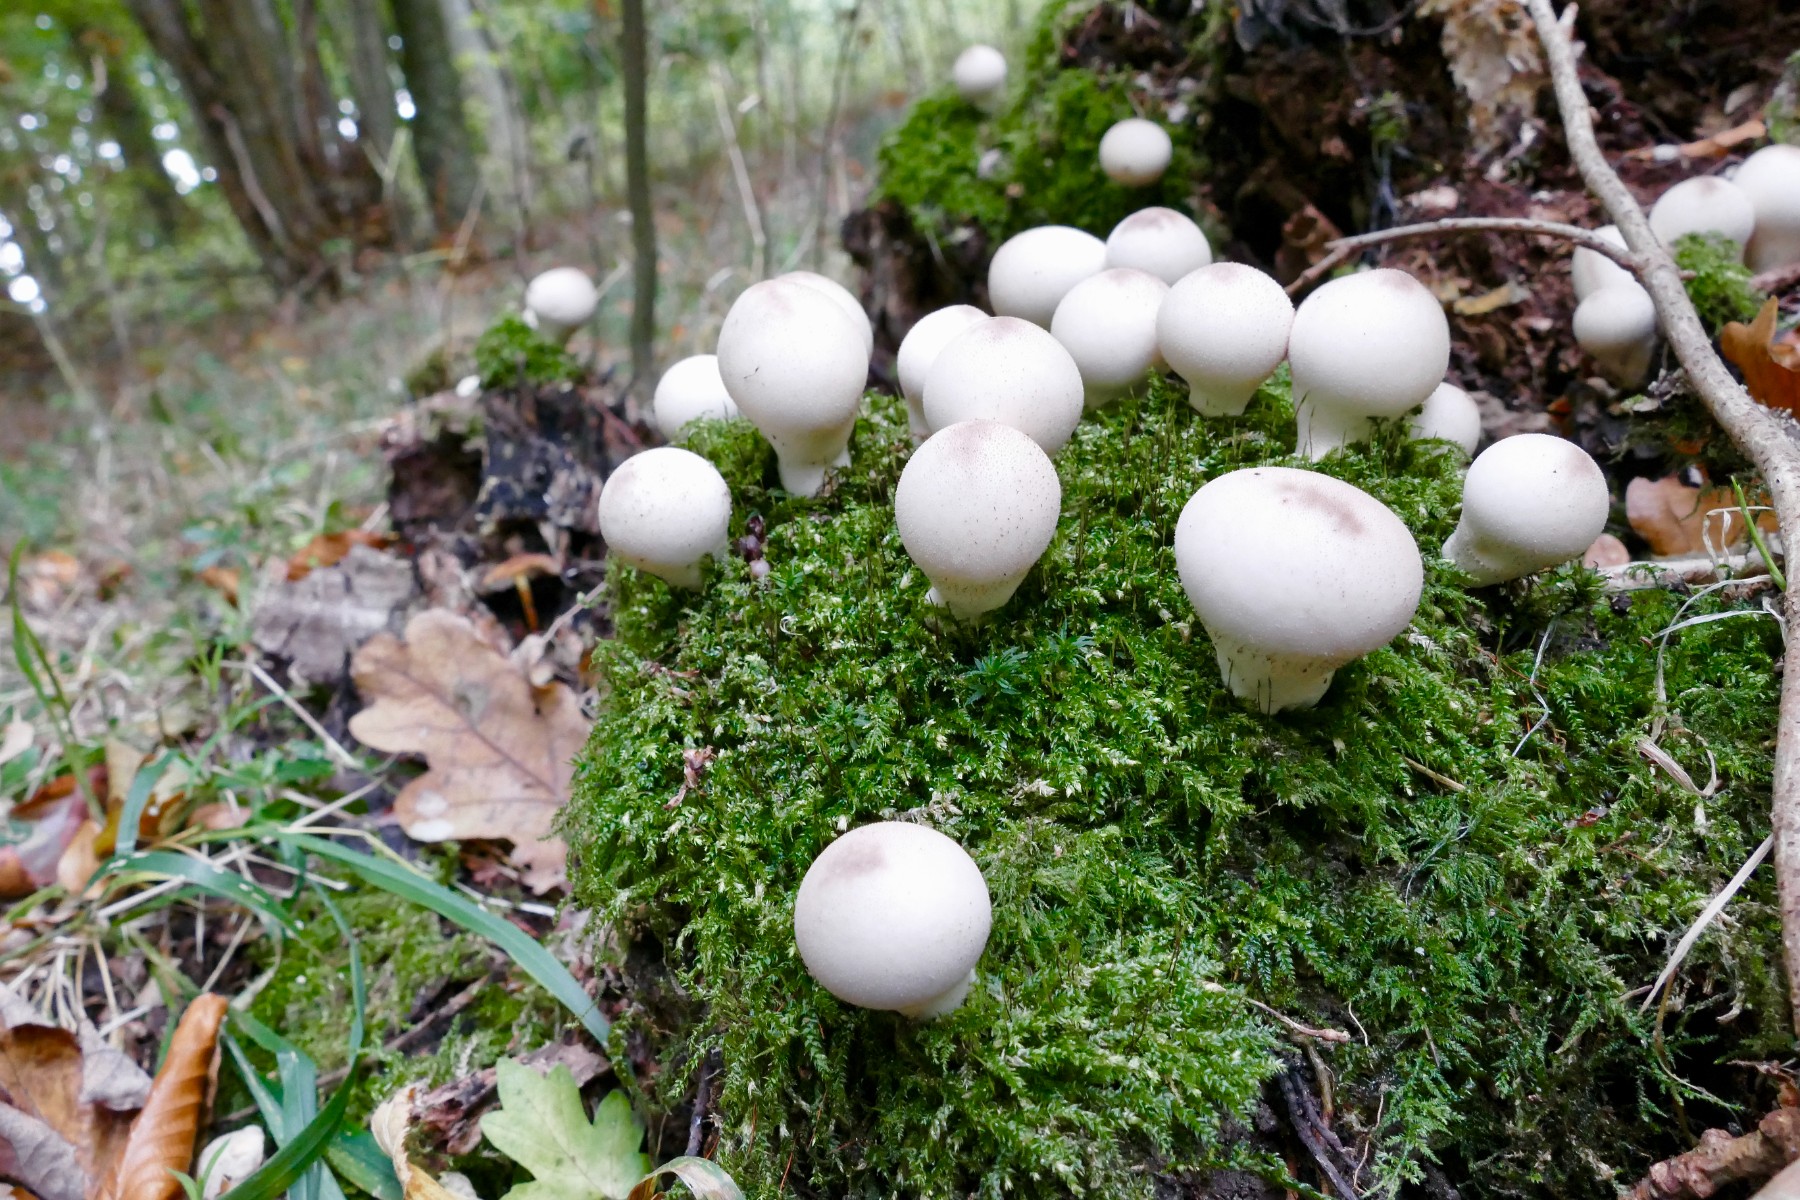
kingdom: Fungi
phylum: Basidiomycota
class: Agaricomycetes
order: Agaricales
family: Lycoperdaceae
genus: Apioperdon
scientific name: Apioperdon pyriforme
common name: pære-støvbold
